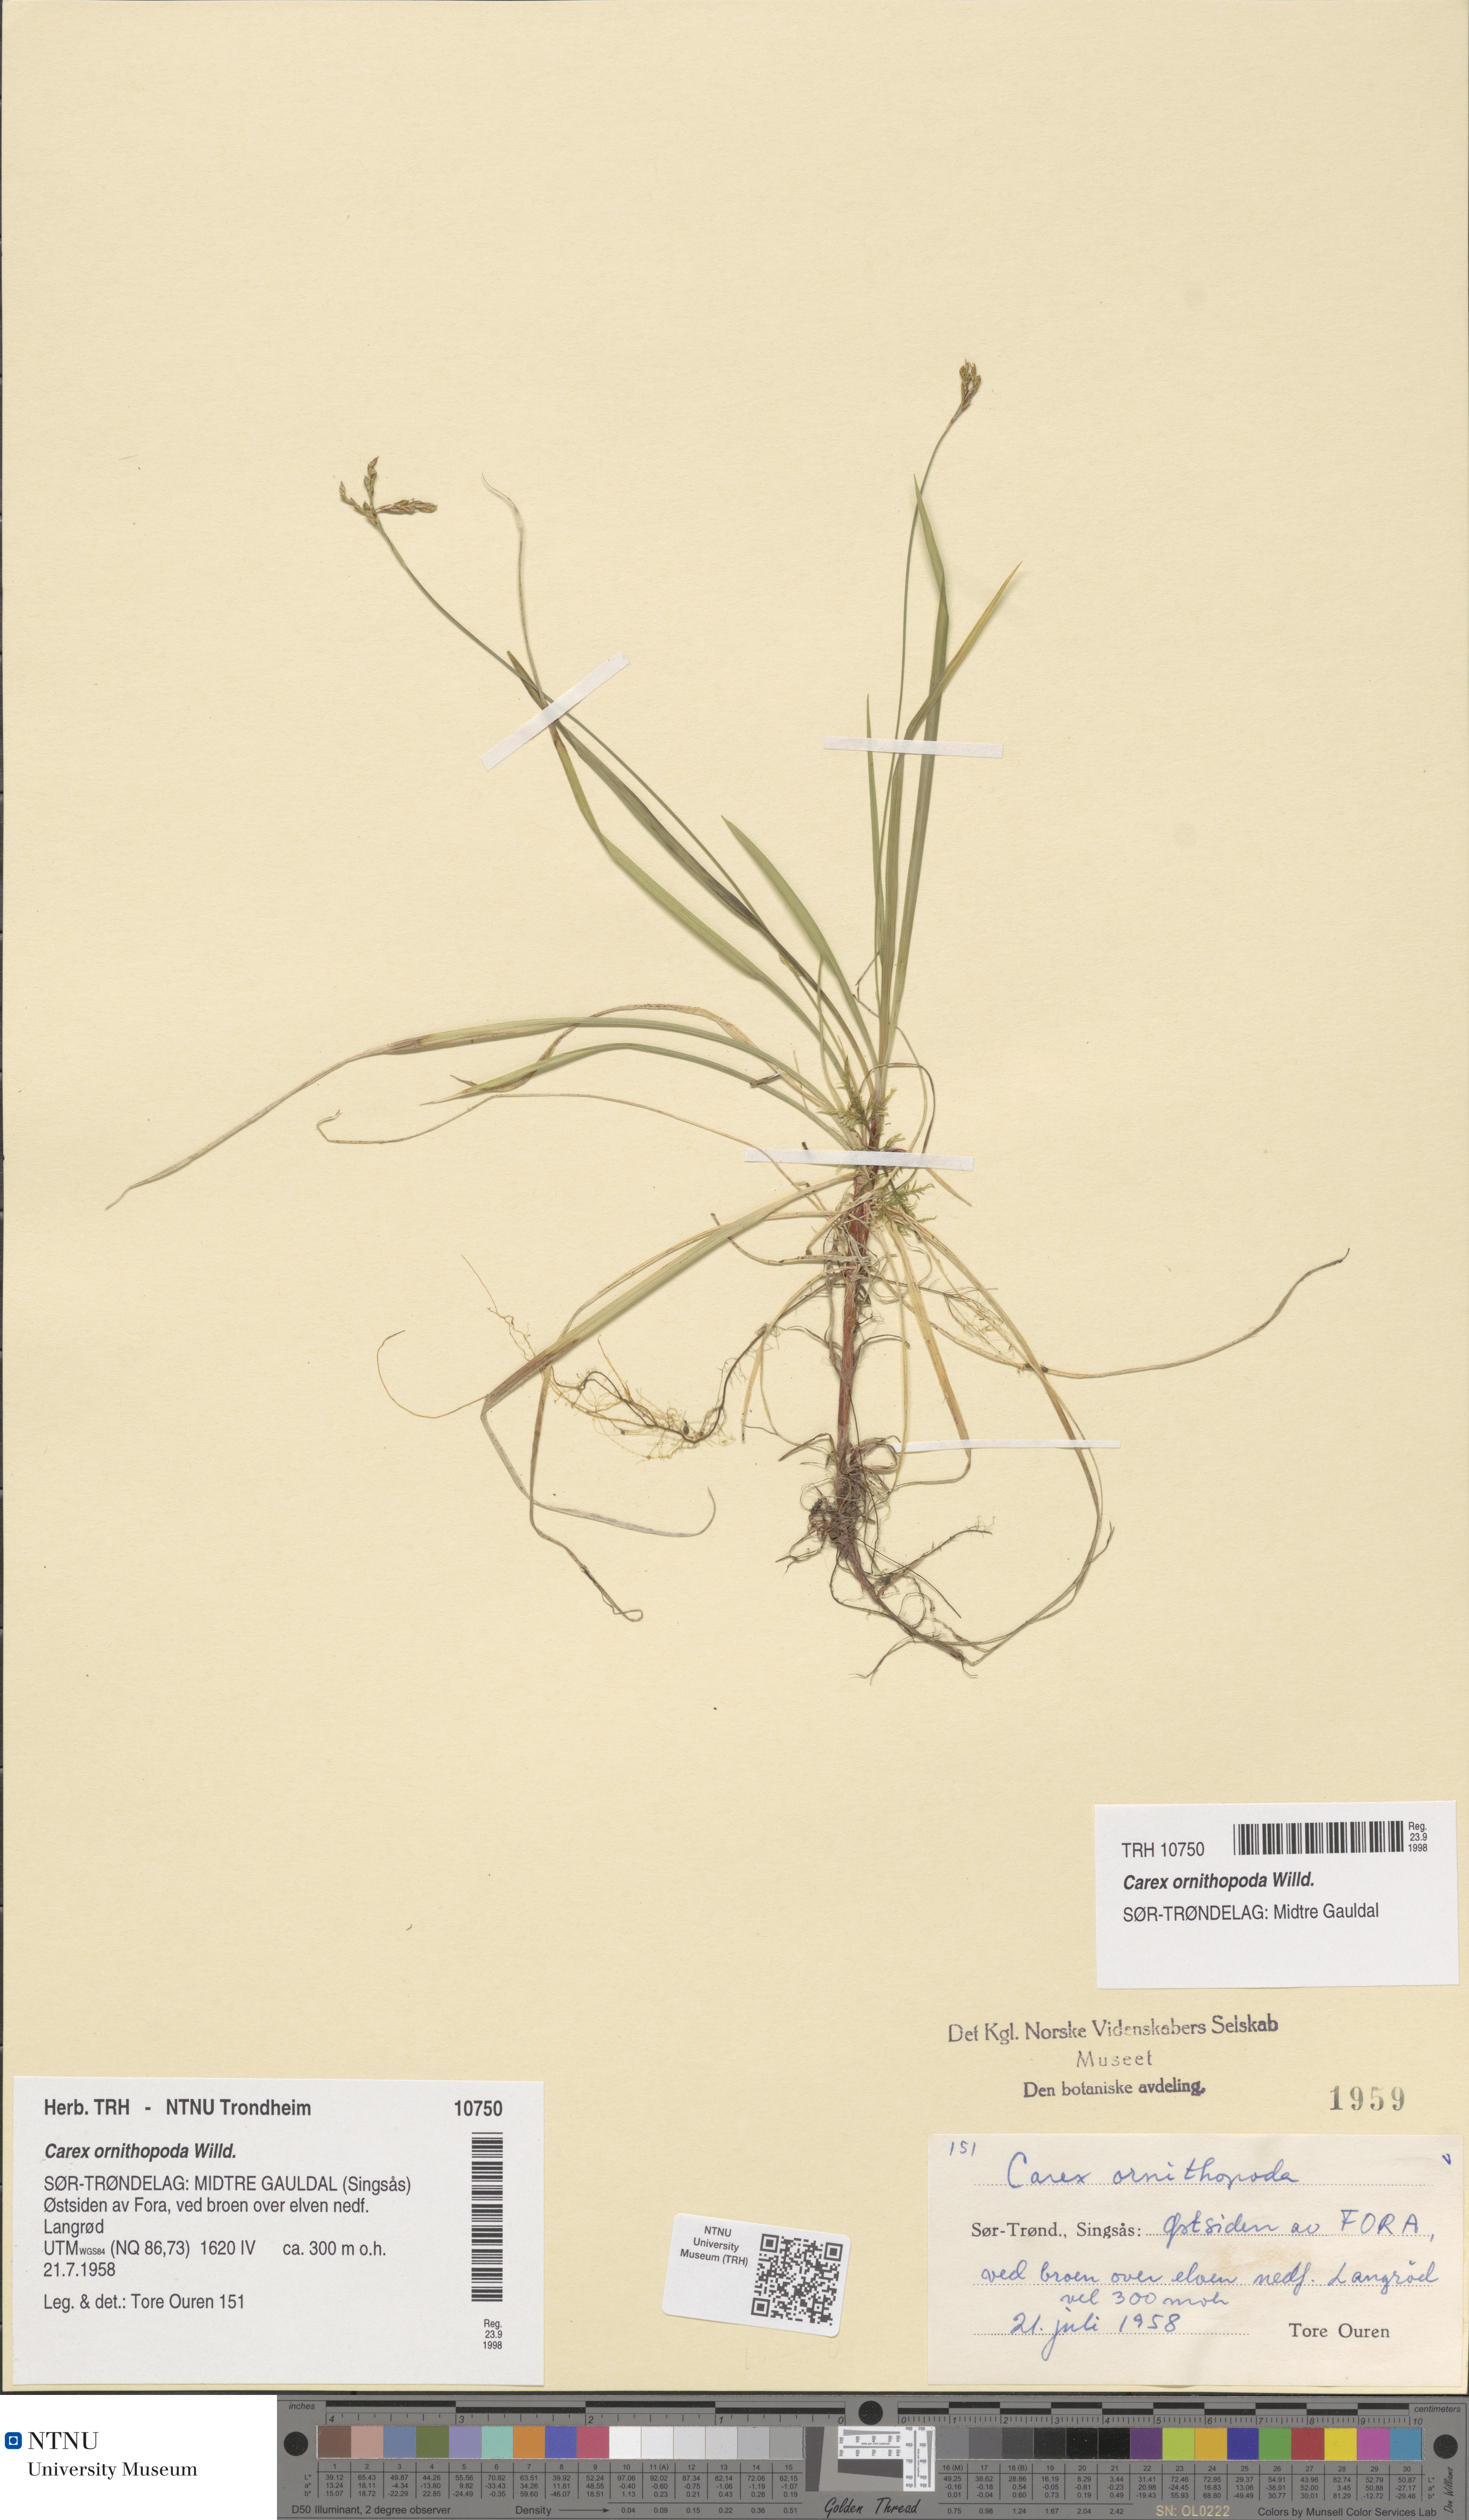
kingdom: Plantae
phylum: Tracheophyta
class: Liliopsida
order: Poales
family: Cyperaceae
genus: Carex
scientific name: Carex ornithopoda
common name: Bird's-foot sedge
